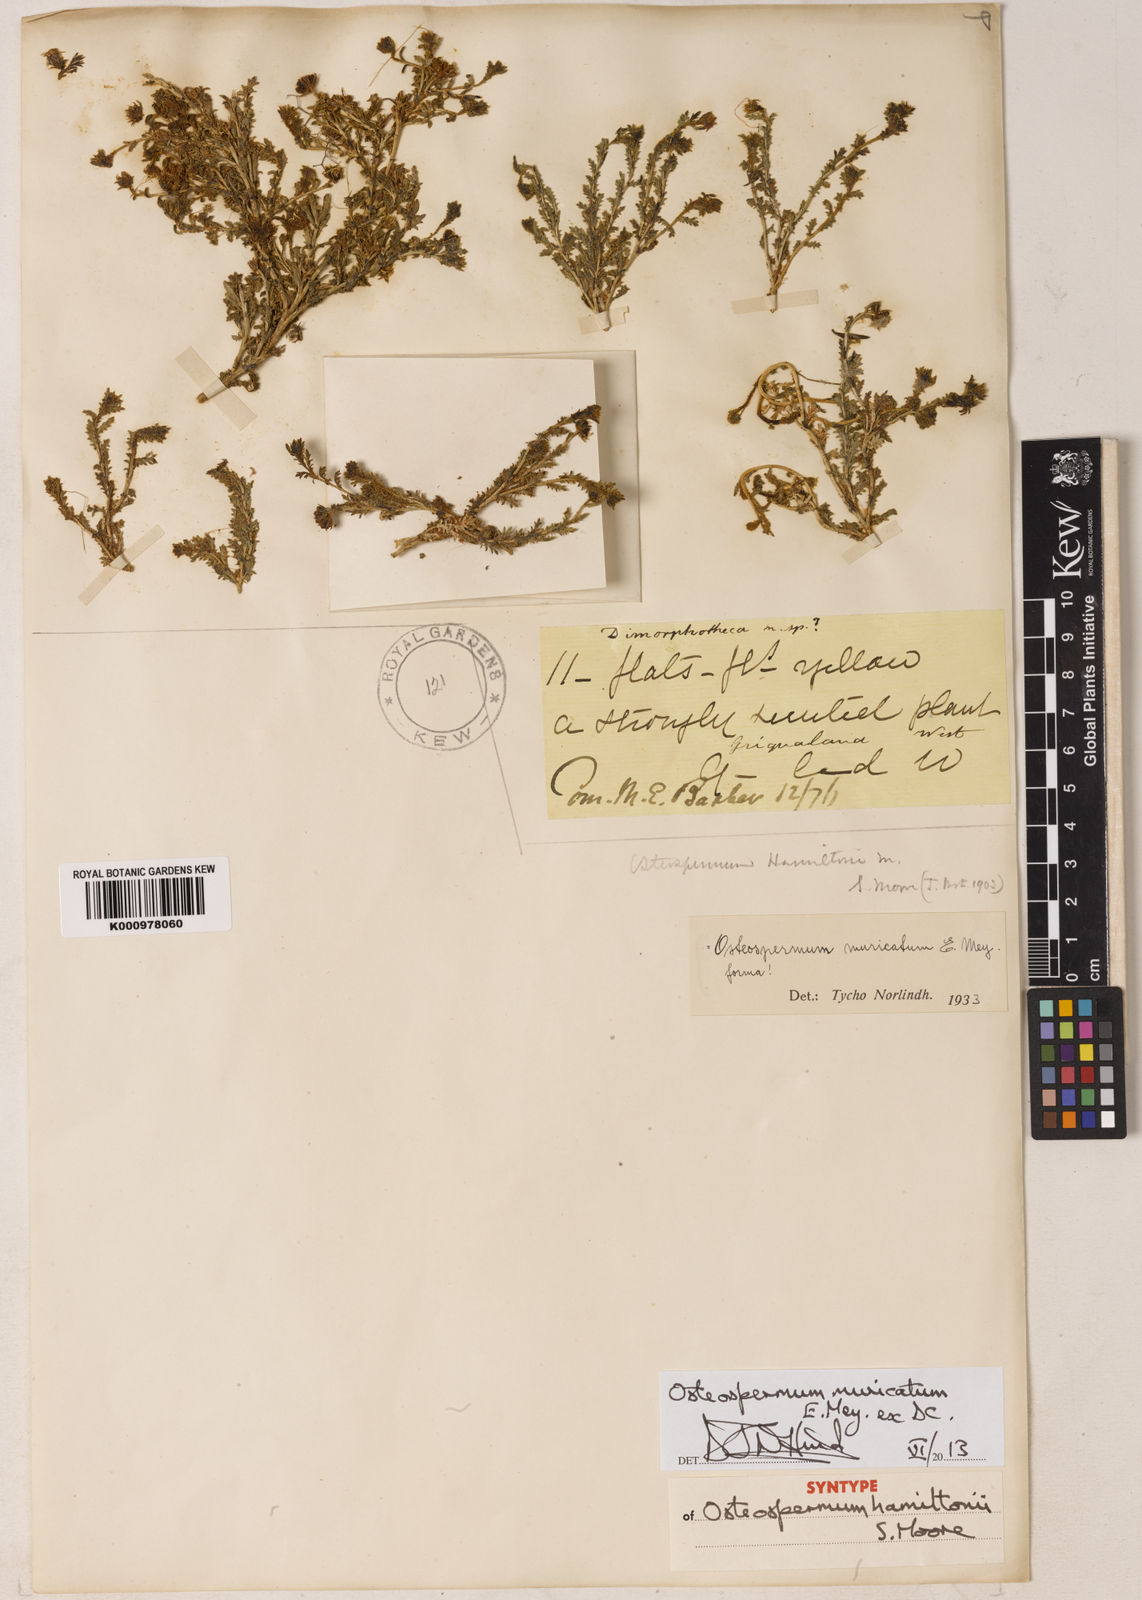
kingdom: Plantae
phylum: Tracheophyta
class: Magnoliopsida
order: Asterales
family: Asteraceae
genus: Osteospermum
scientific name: Osteospermum
